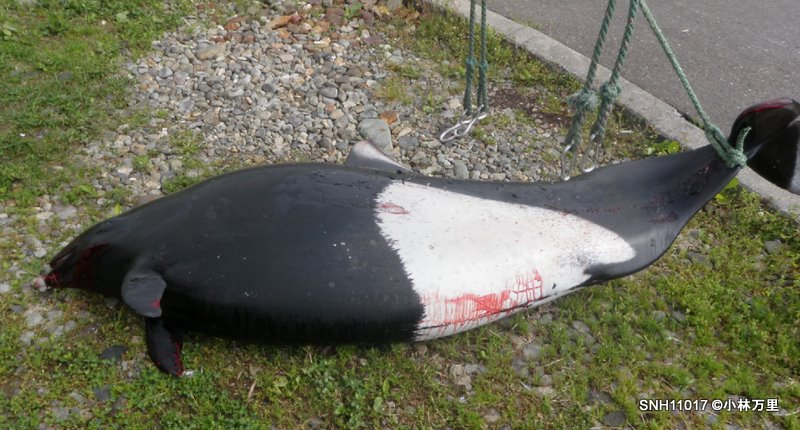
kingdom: Animalia
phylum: Chordata
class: Mammalia
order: Cetacea
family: Phocoenidae
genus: Phocoenoides
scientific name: Phocoenoides dalli
